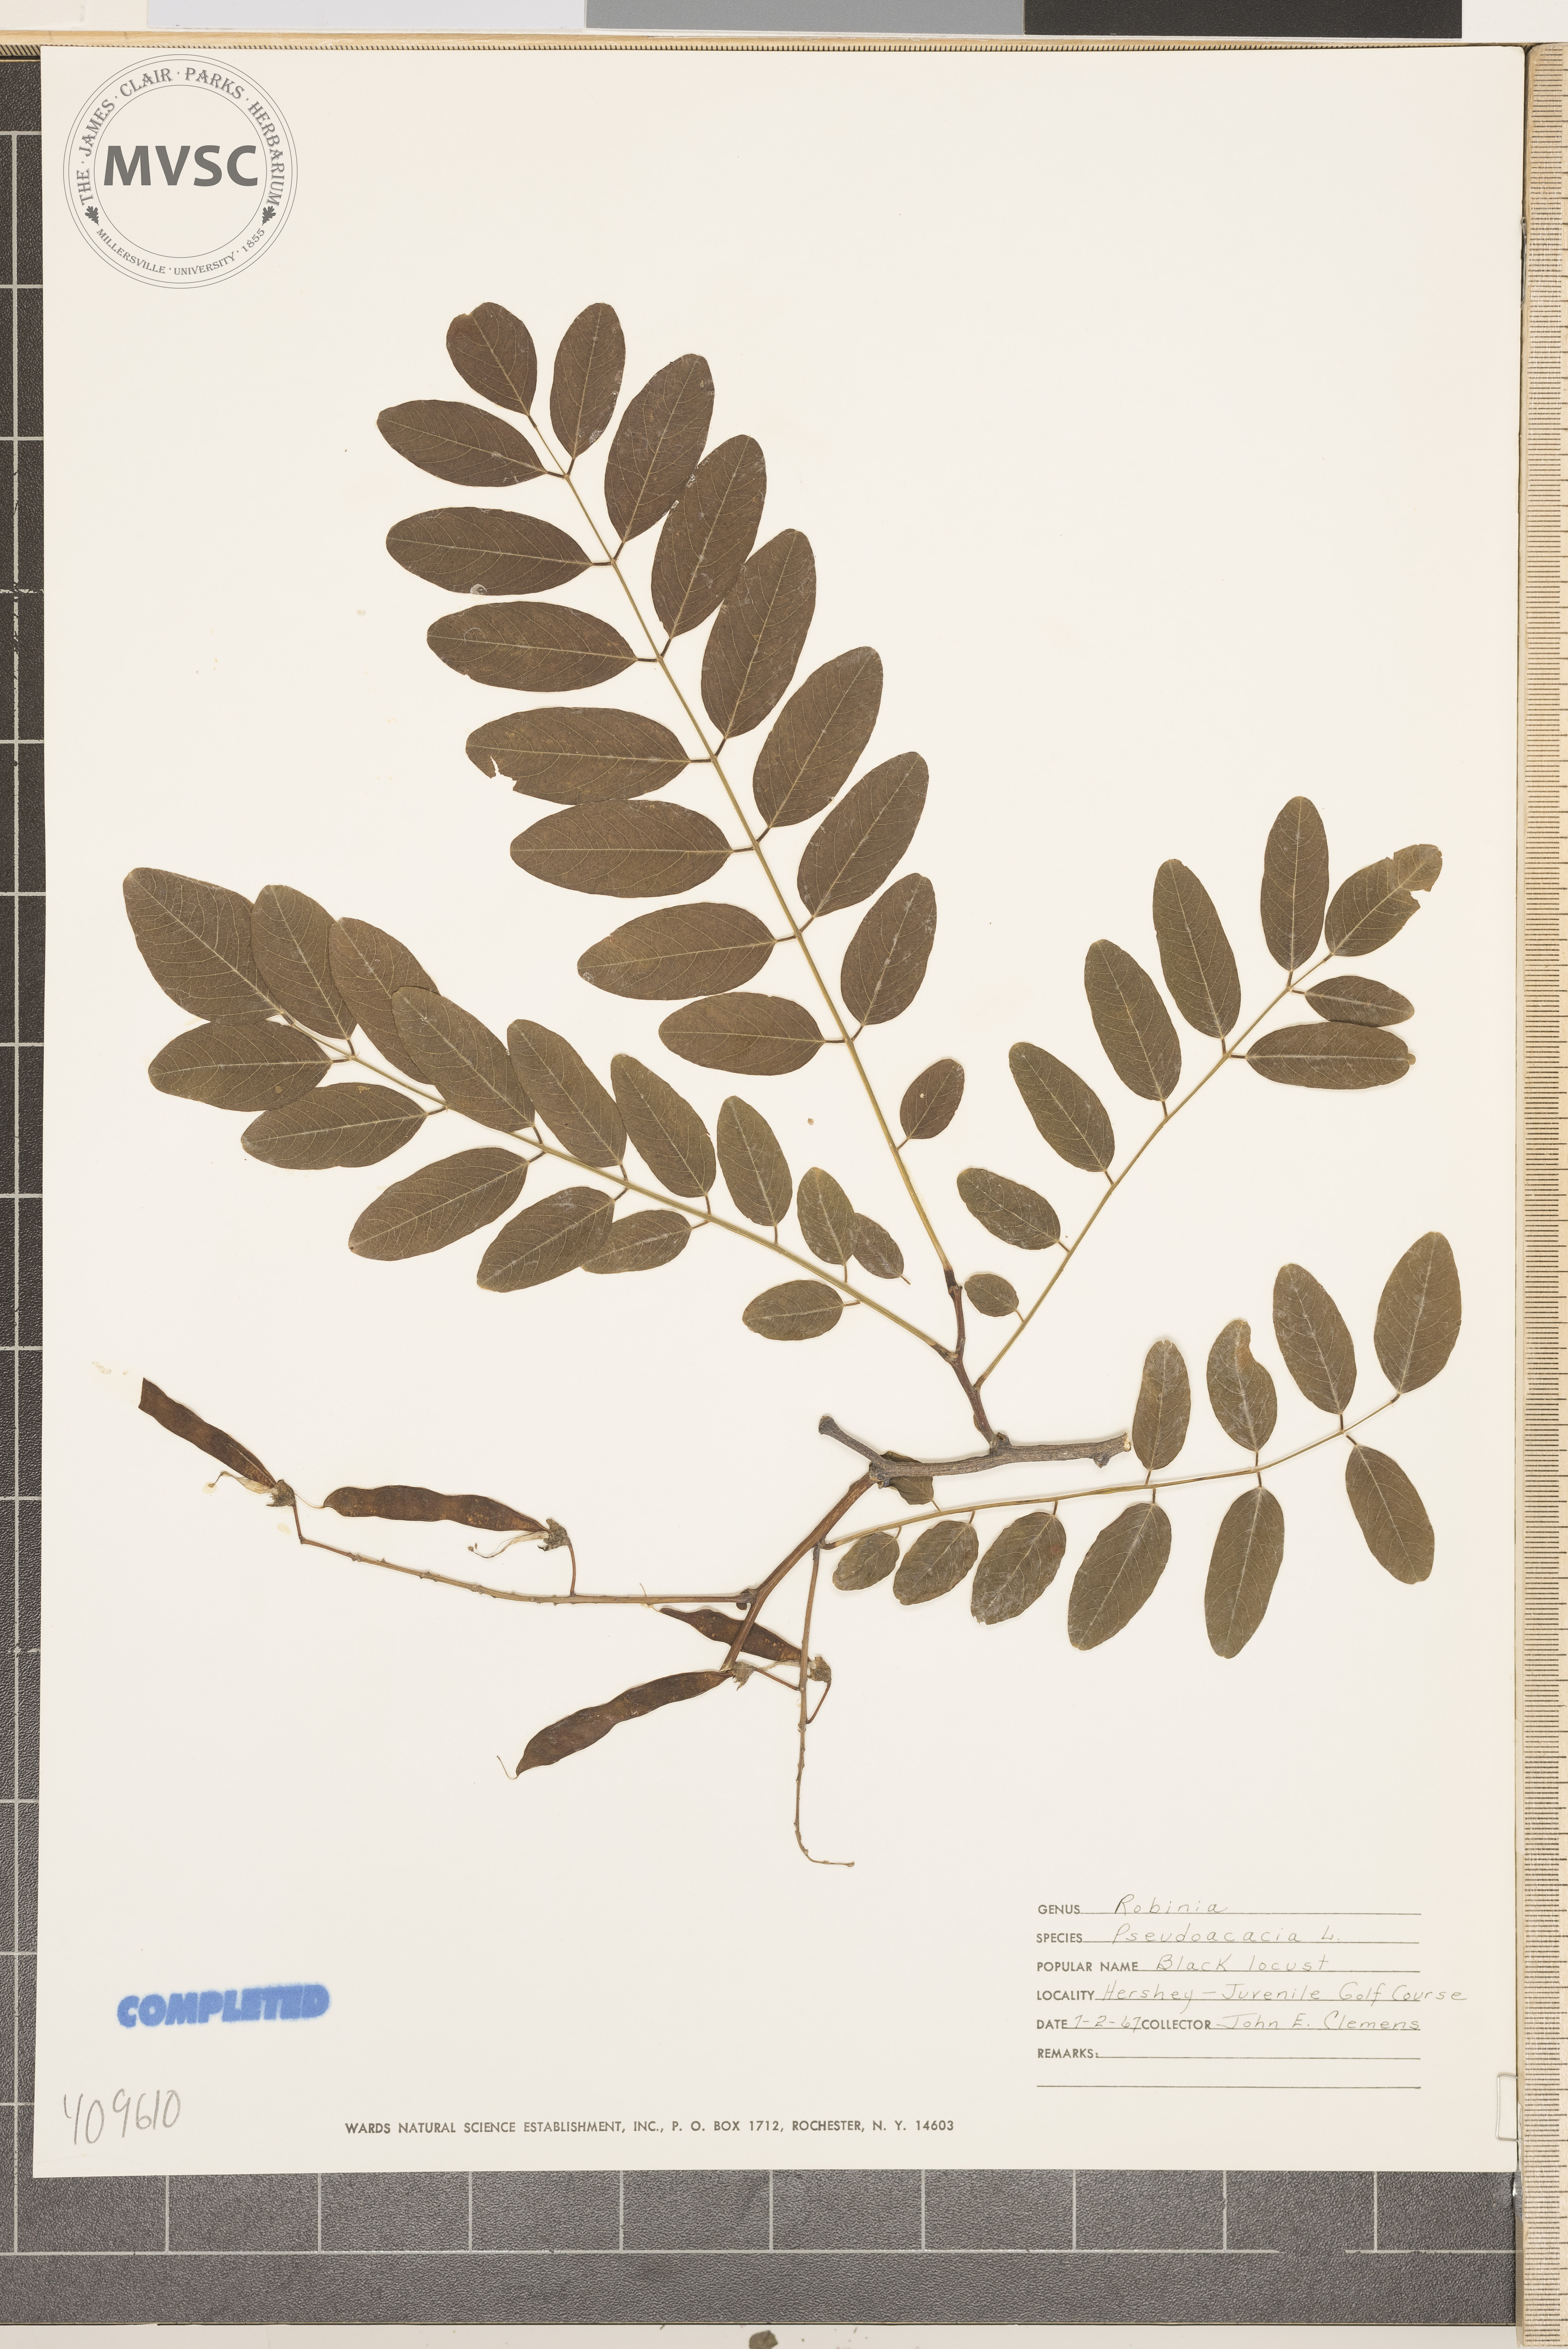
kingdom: Plantae
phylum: Tracheophyta
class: Magnoliopsida
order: Fabales
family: Fabaceae
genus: Robinia
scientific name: Robinia pseudoacacia
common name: Black locust
